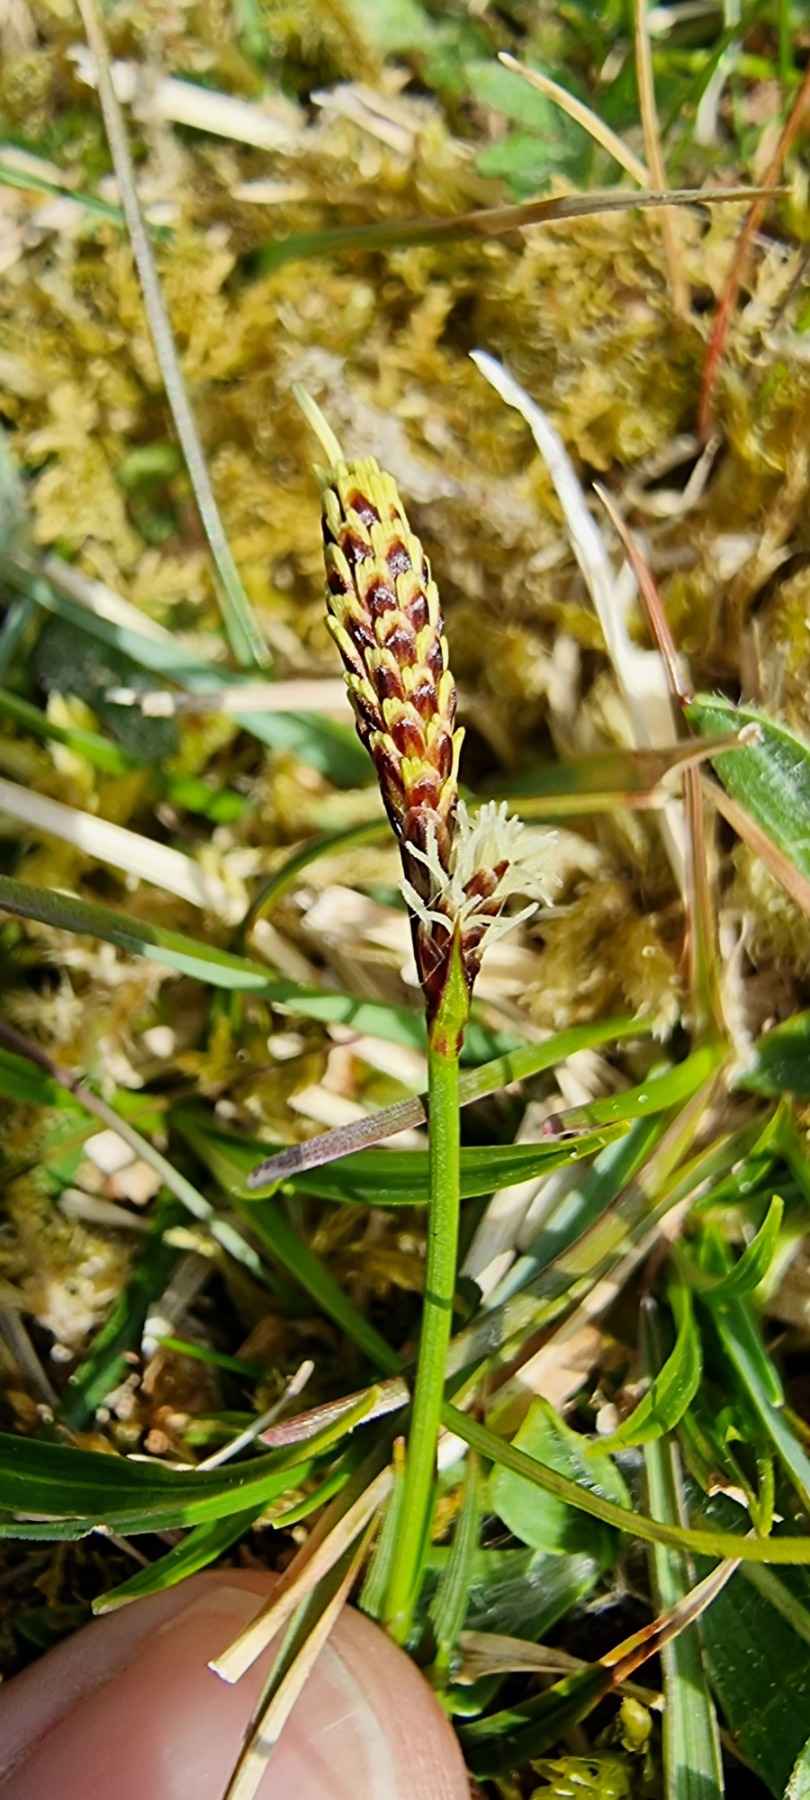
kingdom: Plantae
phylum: Tracheophyta
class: Liliopsida
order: Poales
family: Cyperaceae
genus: Carex
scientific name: Carex caryophyllea
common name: Vår-star
